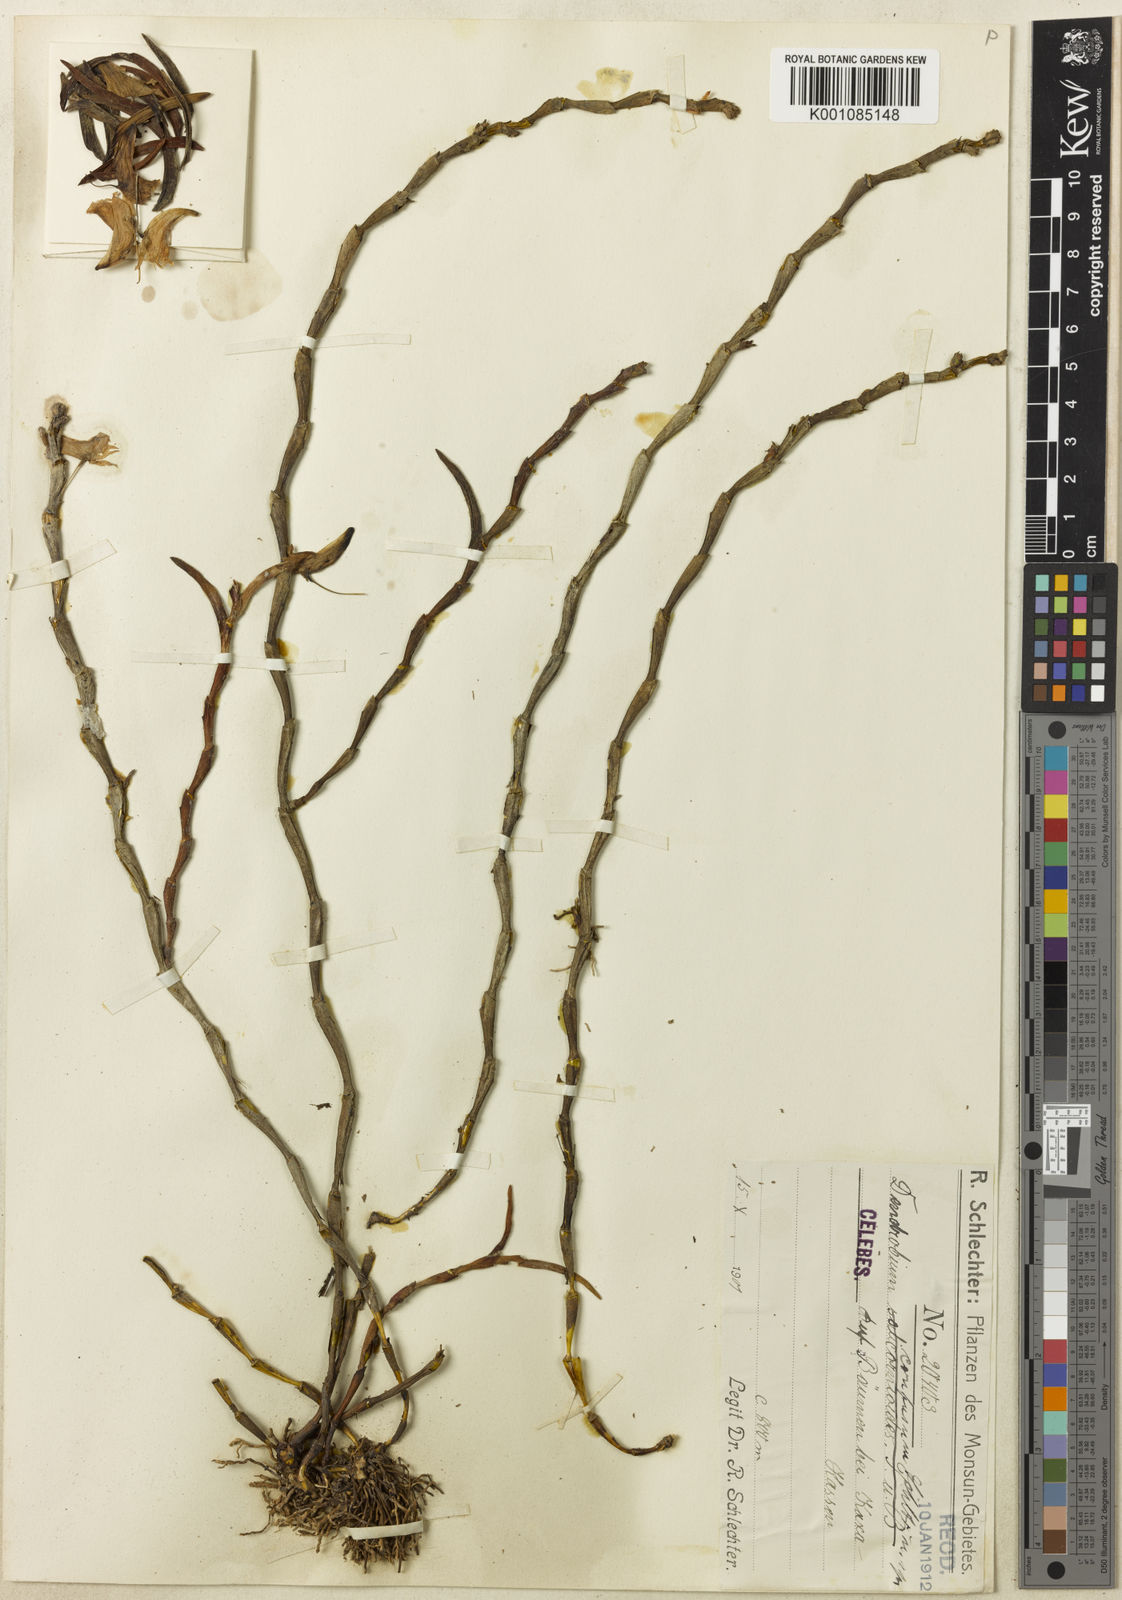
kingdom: Plantae
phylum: Tracheophyta
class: Liliopsida
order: Asparagales
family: Orchidaceae
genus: Dendrobium
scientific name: Dendrobium sphenochilum
